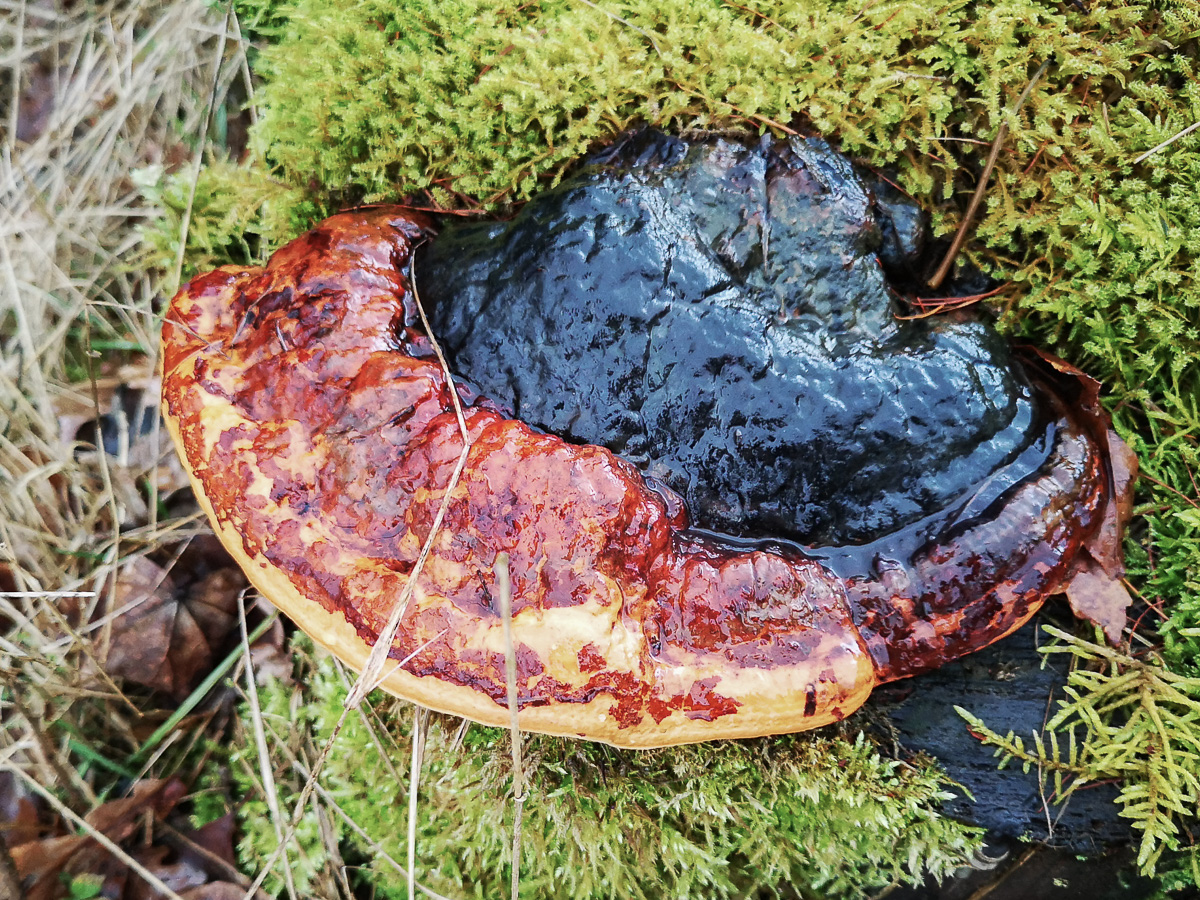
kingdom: Fungi
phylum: Basidiomycota
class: Agaricomycetes
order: Polyporales
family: Fomitopsidaceae
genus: Fomitopsis
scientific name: Fomitopsis pinicola
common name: randbæltet hovporesvamp
